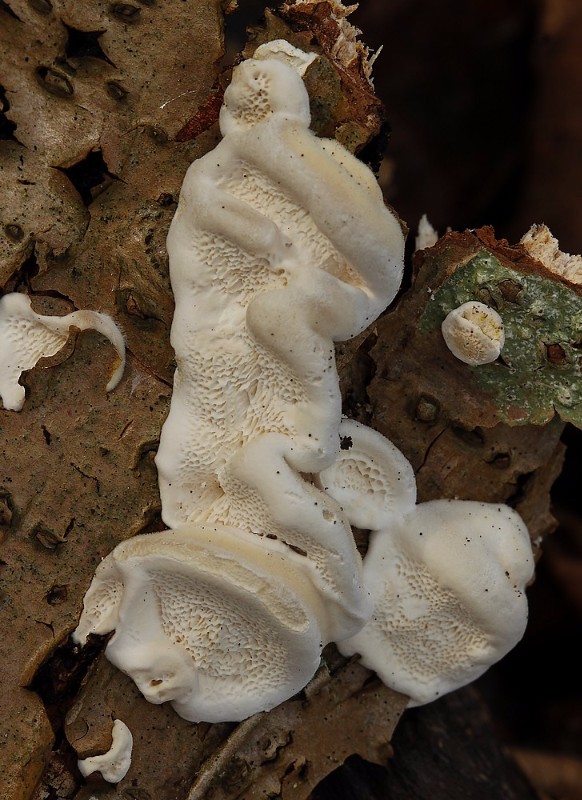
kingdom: Fungi
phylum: Basidiomycota
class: Agaricomycetes
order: Polyporales
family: Polyporaceae
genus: Trametes
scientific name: Trametes
